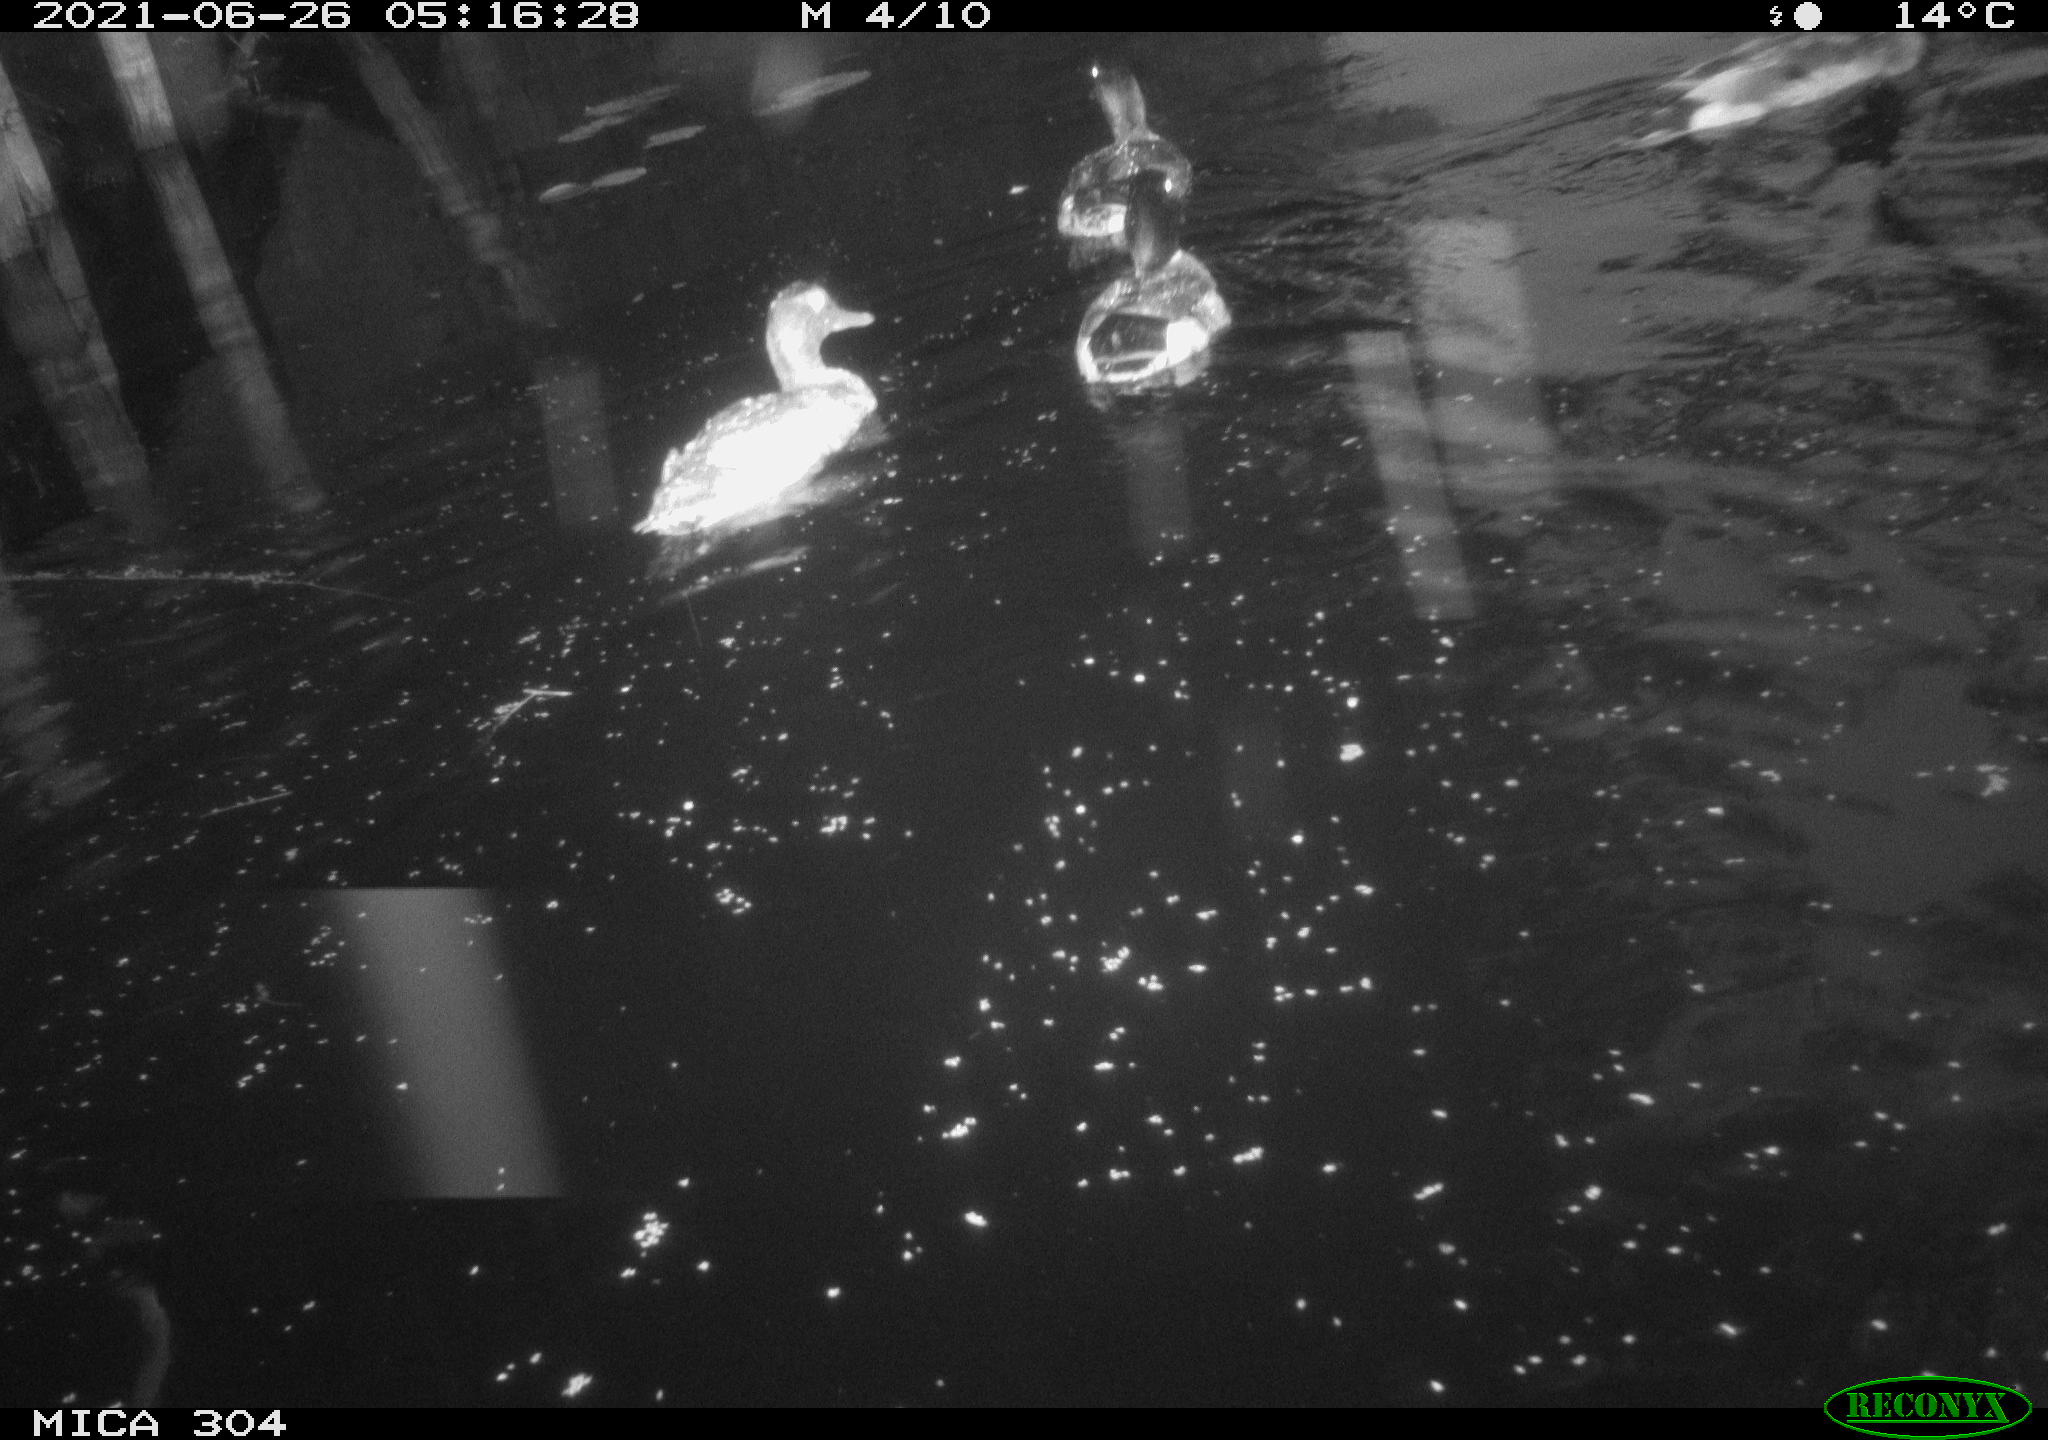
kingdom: Animalia
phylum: Chordata
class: Aves
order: Anseriformes
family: Anatidae
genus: Anas
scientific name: Anas platyrhynchos
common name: Mallard
